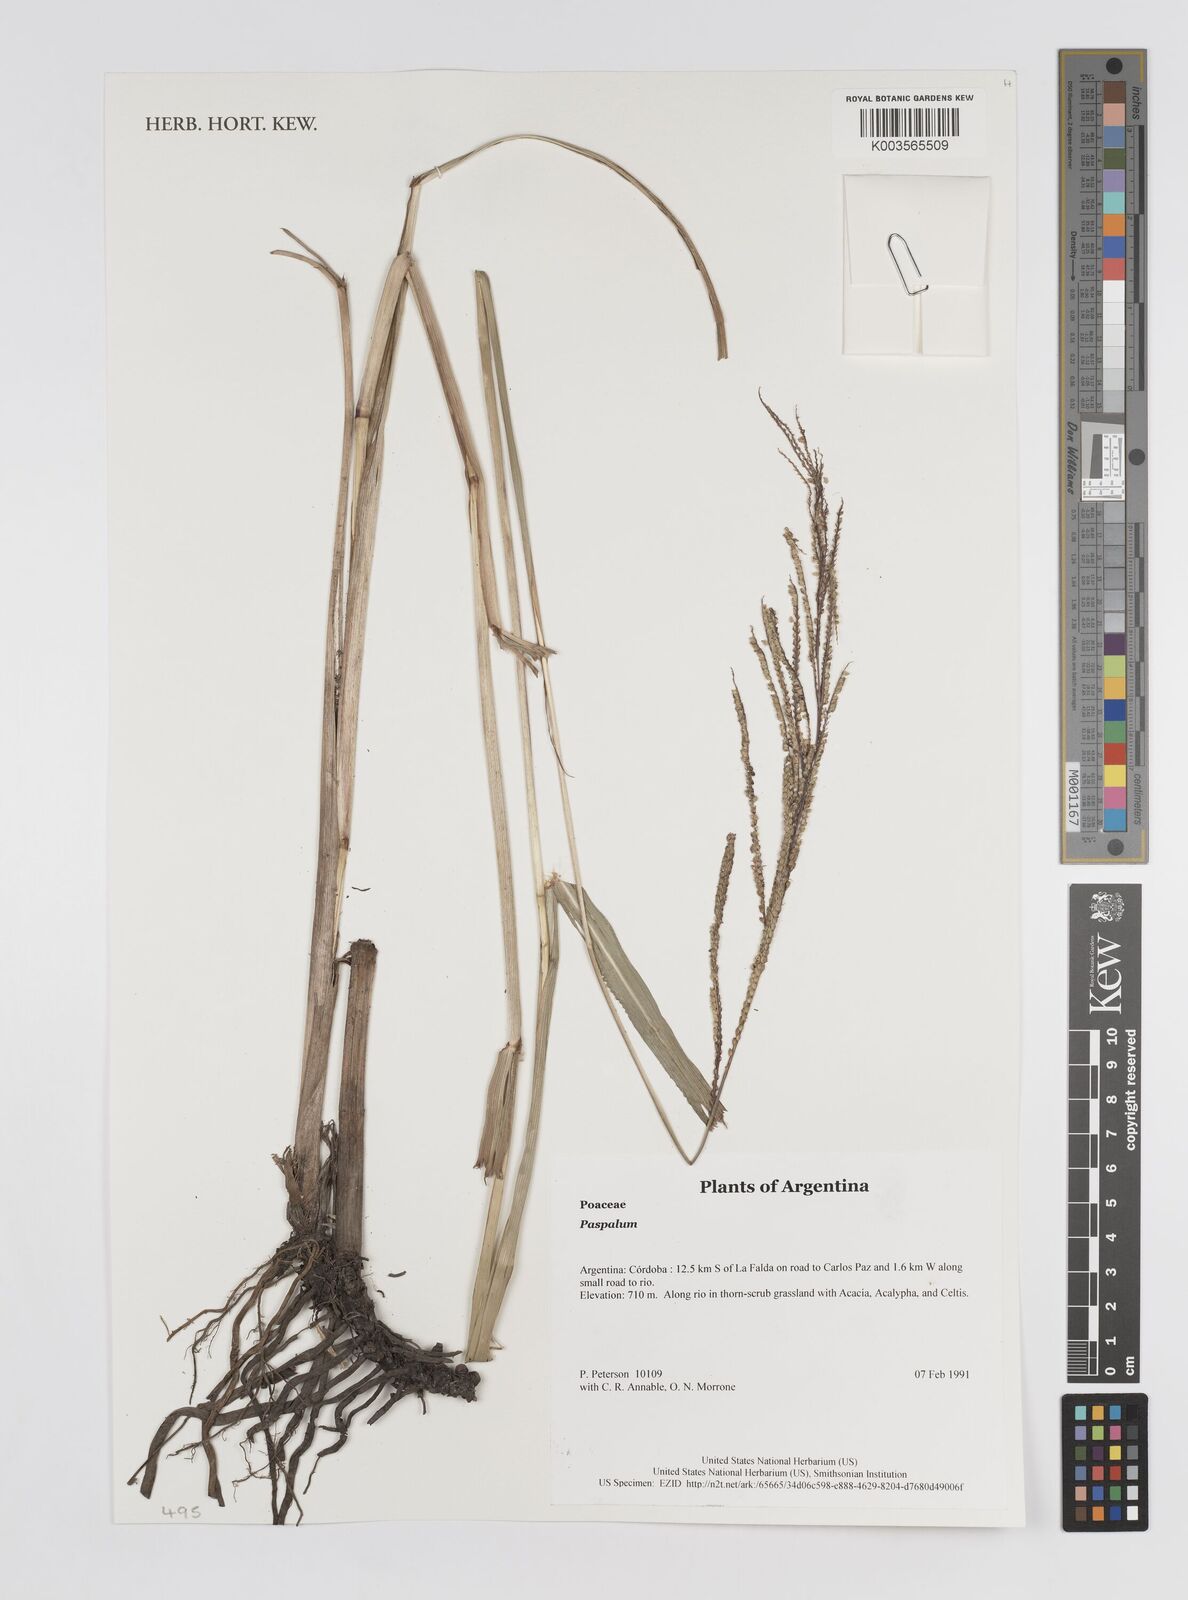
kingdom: Plantae
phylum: Tracheophyta
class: Liliopsida
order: Poales
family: Poaceae
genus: Paspalum
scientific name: Paspalum
